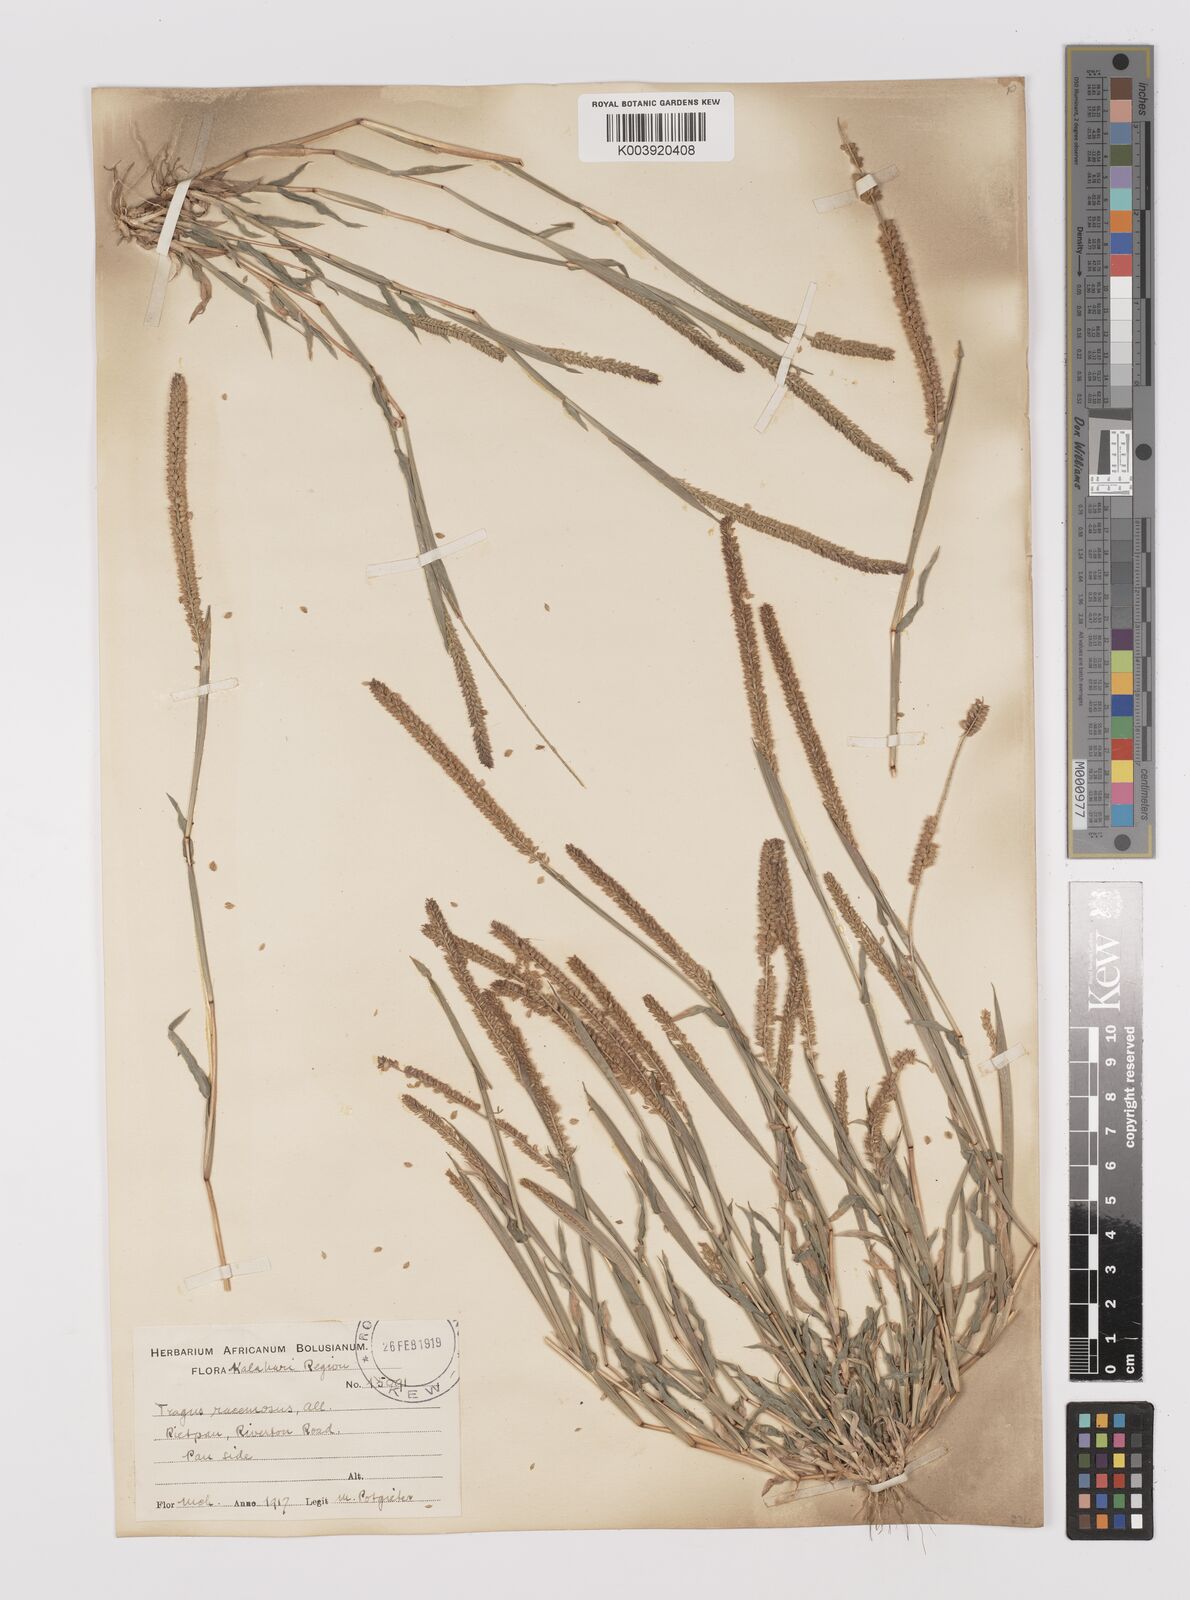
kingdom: Plantae
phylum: Tracheophyta
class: Liliopsida
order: Poales
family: Poaceae
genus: Tragus
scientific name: Tragus berteronianus
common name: African bur-grass
